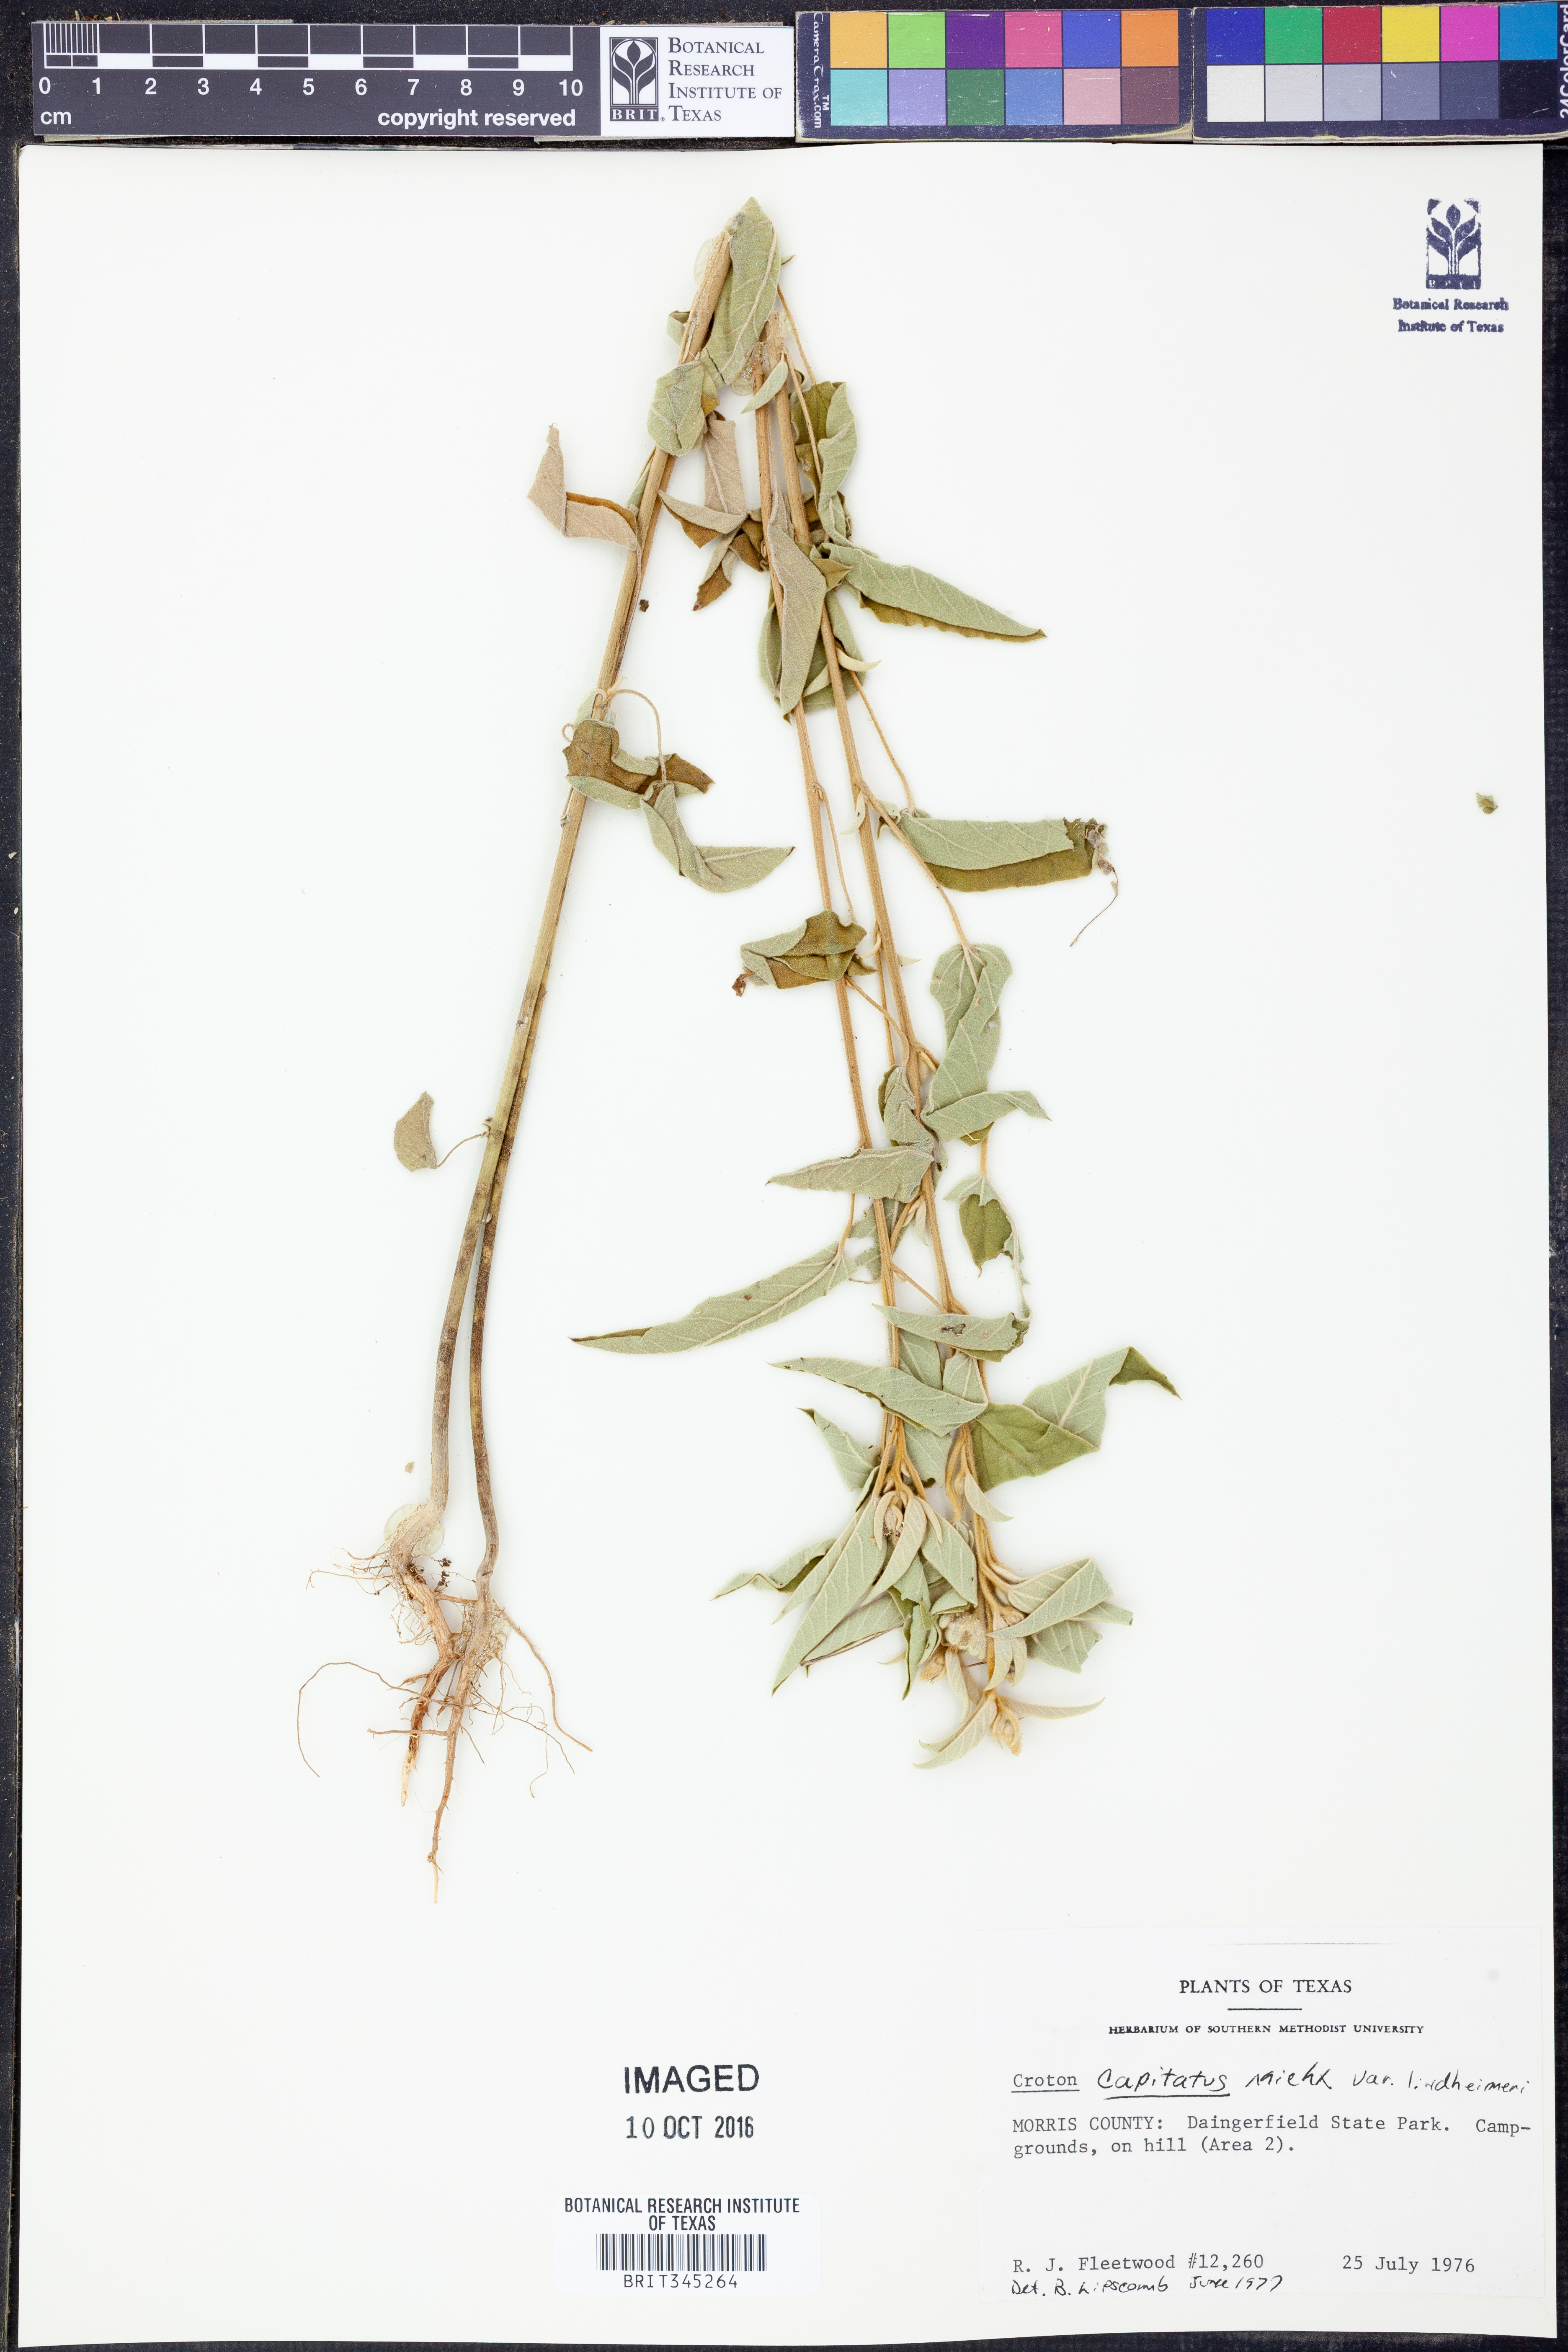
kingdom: Plantae
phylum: Tracheophyta
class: Magnoliopsida
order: Malpighiales
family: Euphorbiaceae
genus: Croton
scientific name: Croton lindheimeri
